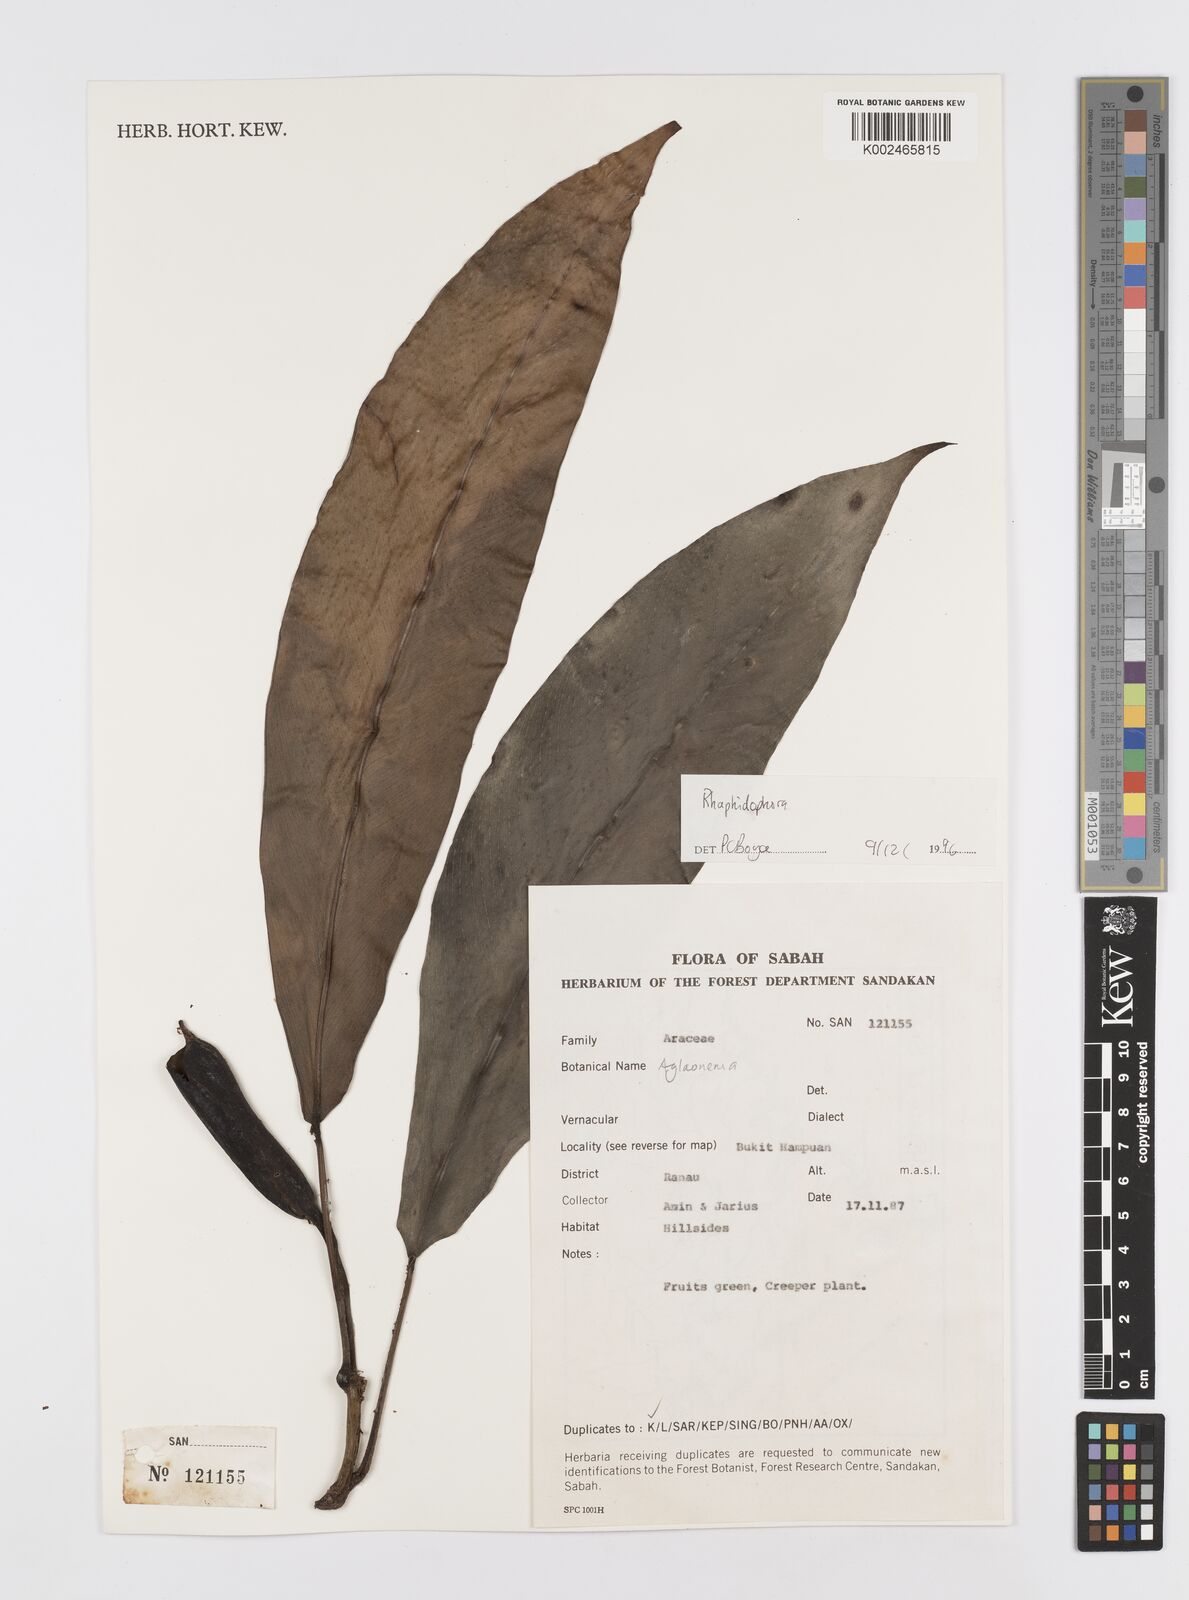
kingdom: Plantae
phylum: Tracheophyta
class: Liliopsida
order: Alismatales
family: Araceae
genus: Rhaphidophora
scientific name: Rhaphidophora sylvestris
